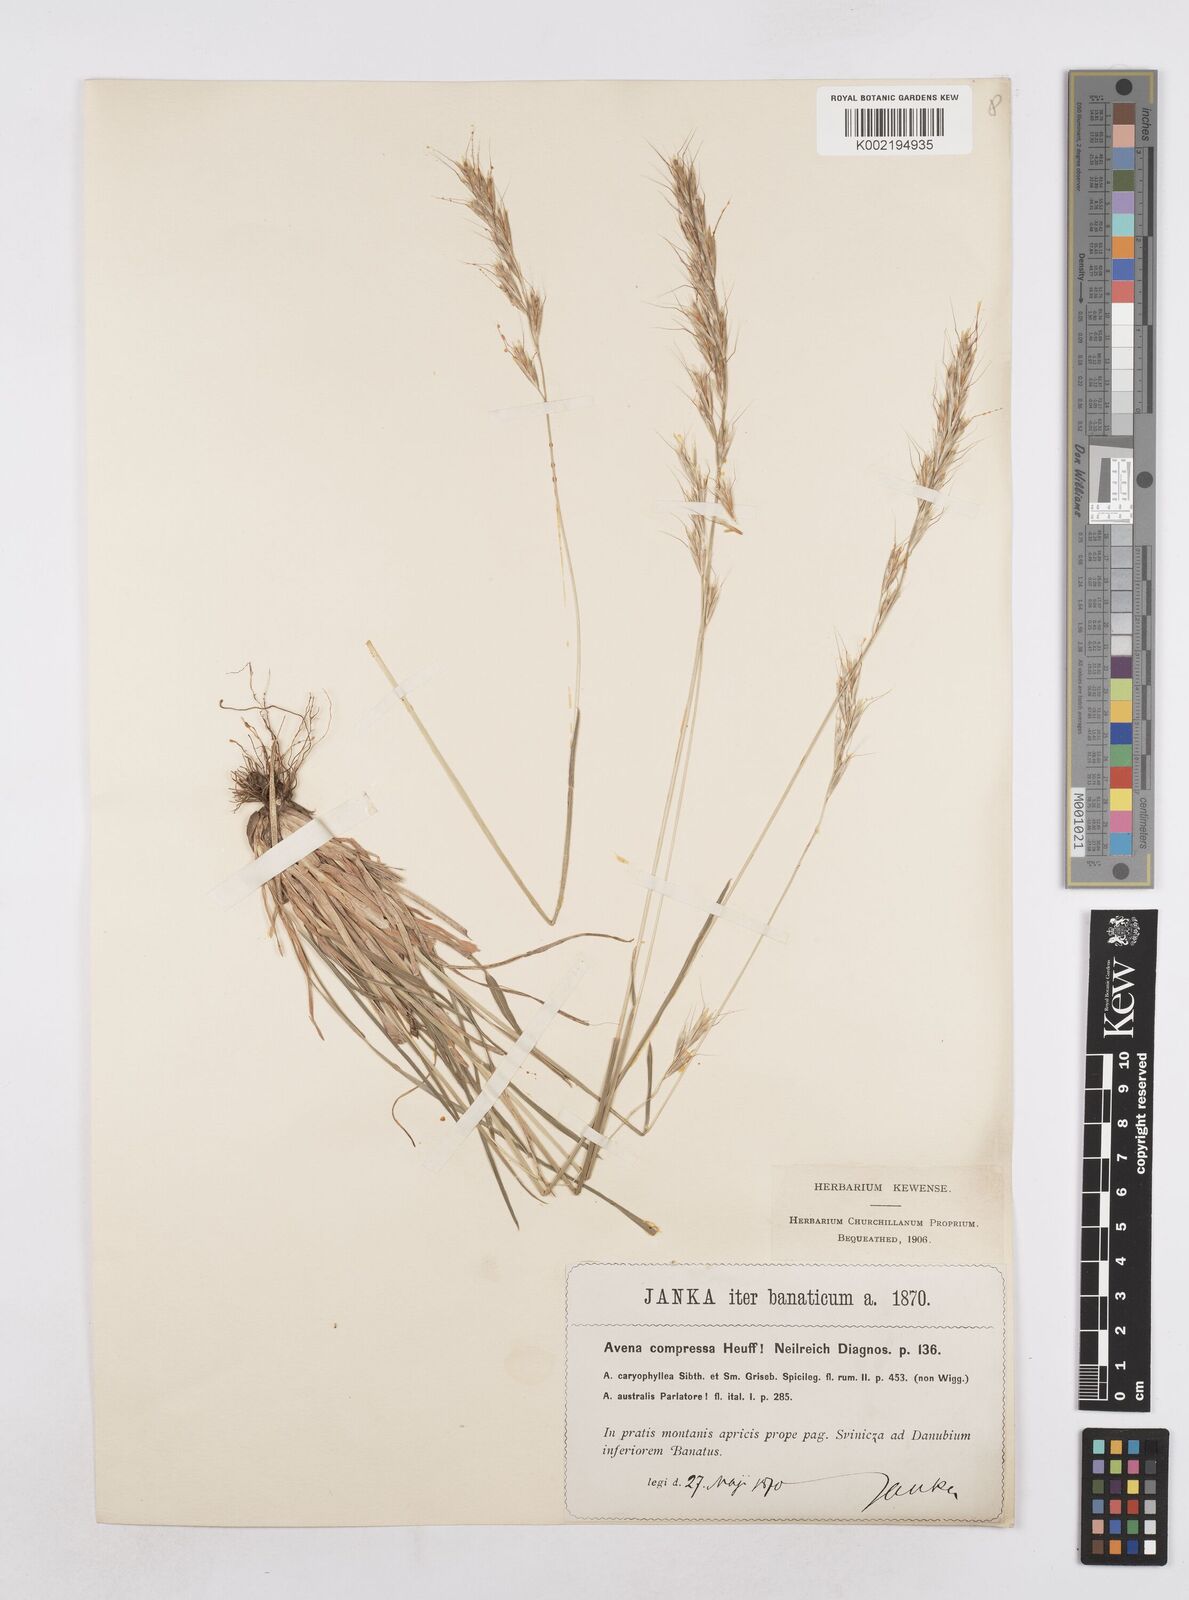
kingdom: Plantae
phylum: Tracheophyta
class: Liliopsida
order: Poales
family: Poaceae
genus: Helictochloa
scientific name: Helictochloa compressa
